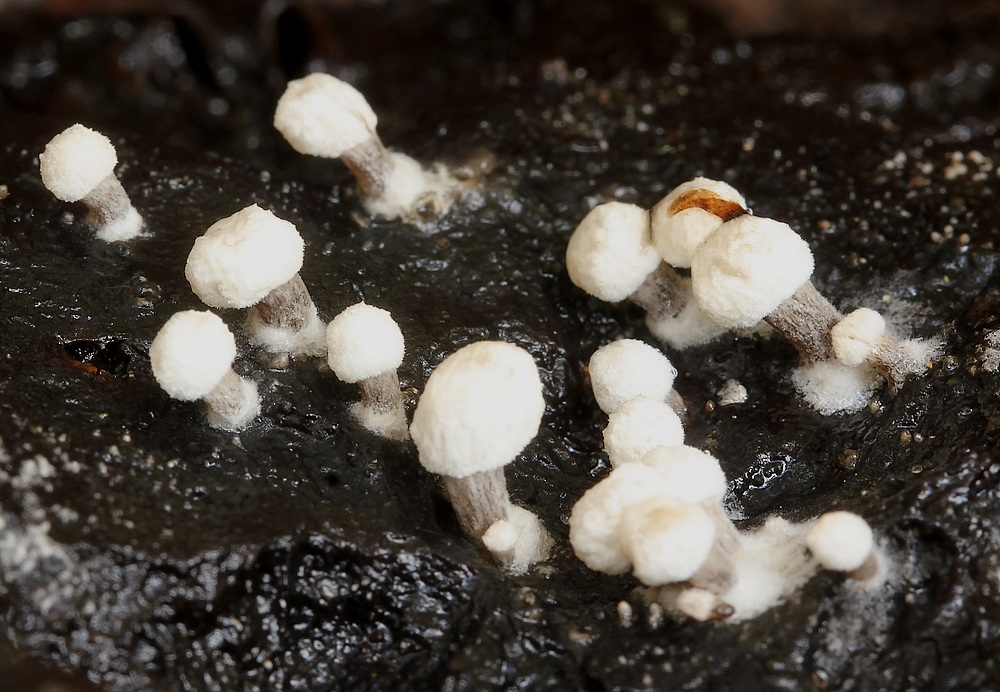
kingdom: Fungi
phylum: Basidiomycota
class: Agaricomycetes
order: Agaricales
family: Lyophyllaceae
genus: Asterophora
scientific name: Asterophora lycoperdoides
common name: brunpudret snyltehat
